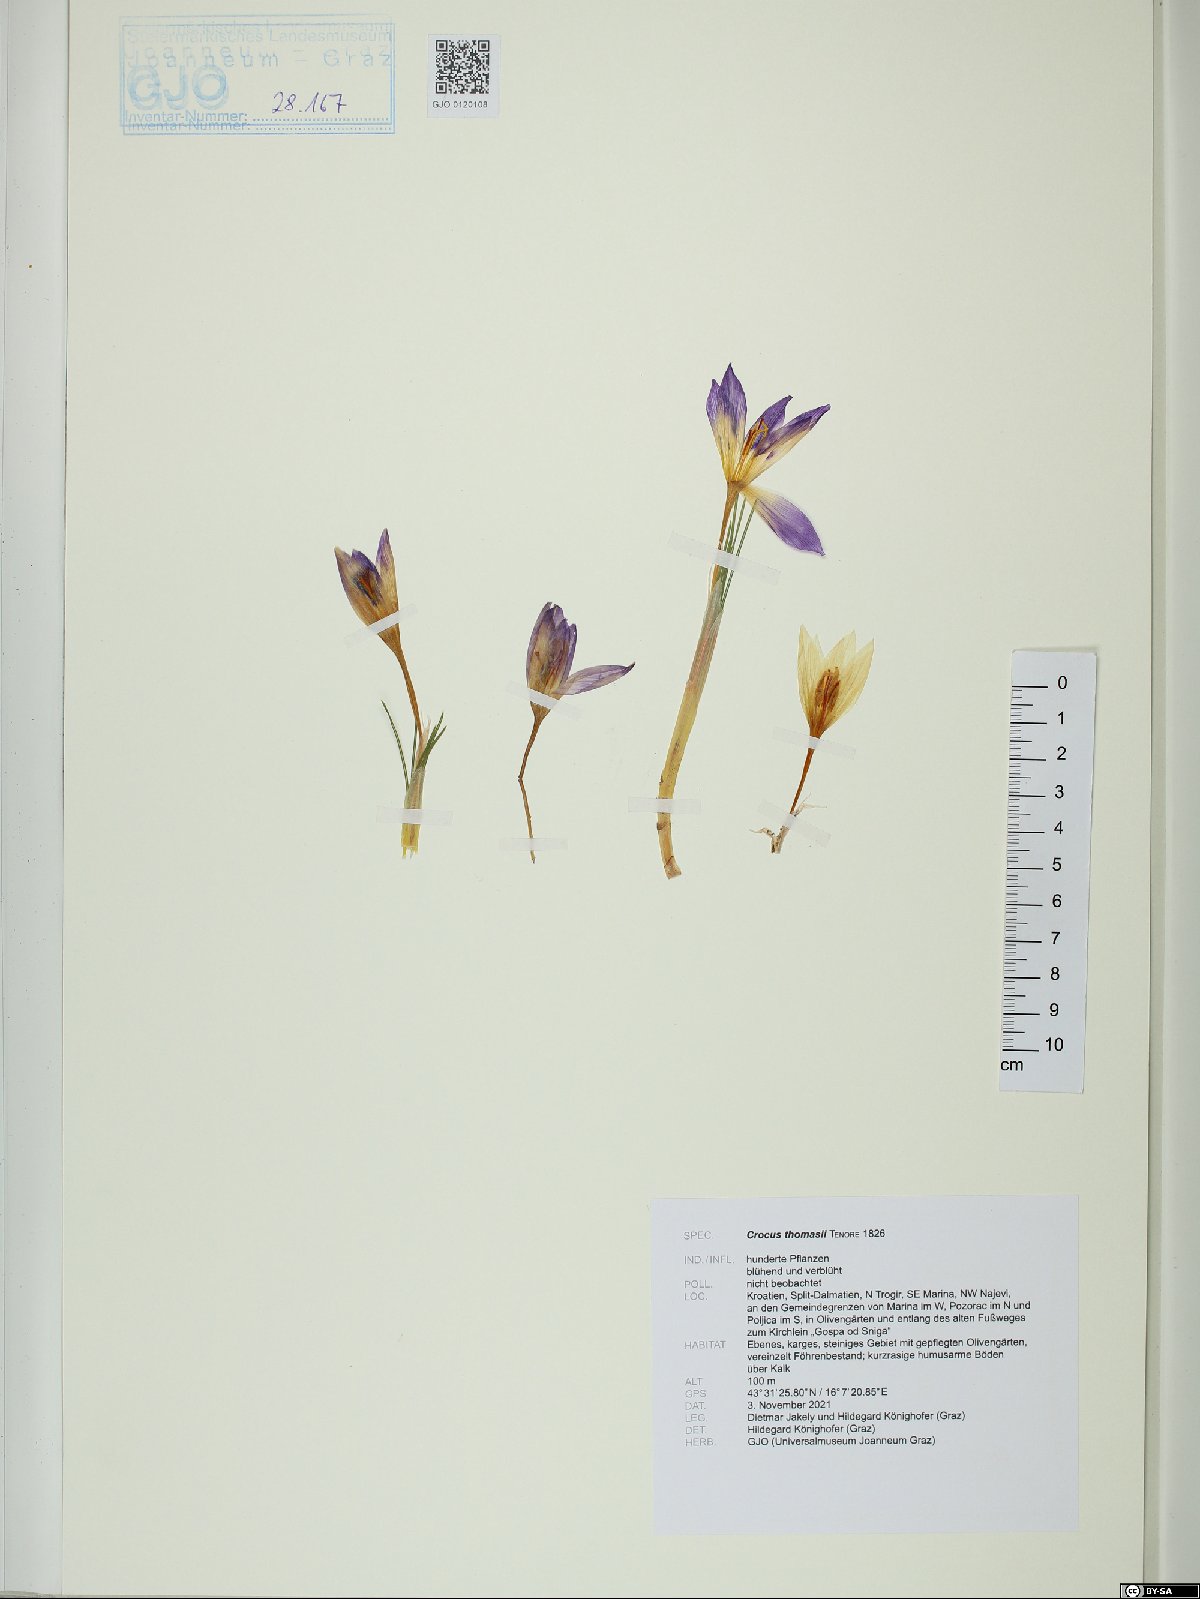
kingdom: Plantae
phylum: Tracheophyta
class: Liliopsida
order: Asparagales
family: Iridaceae
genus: Crocus
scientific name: Crocus thomasii
